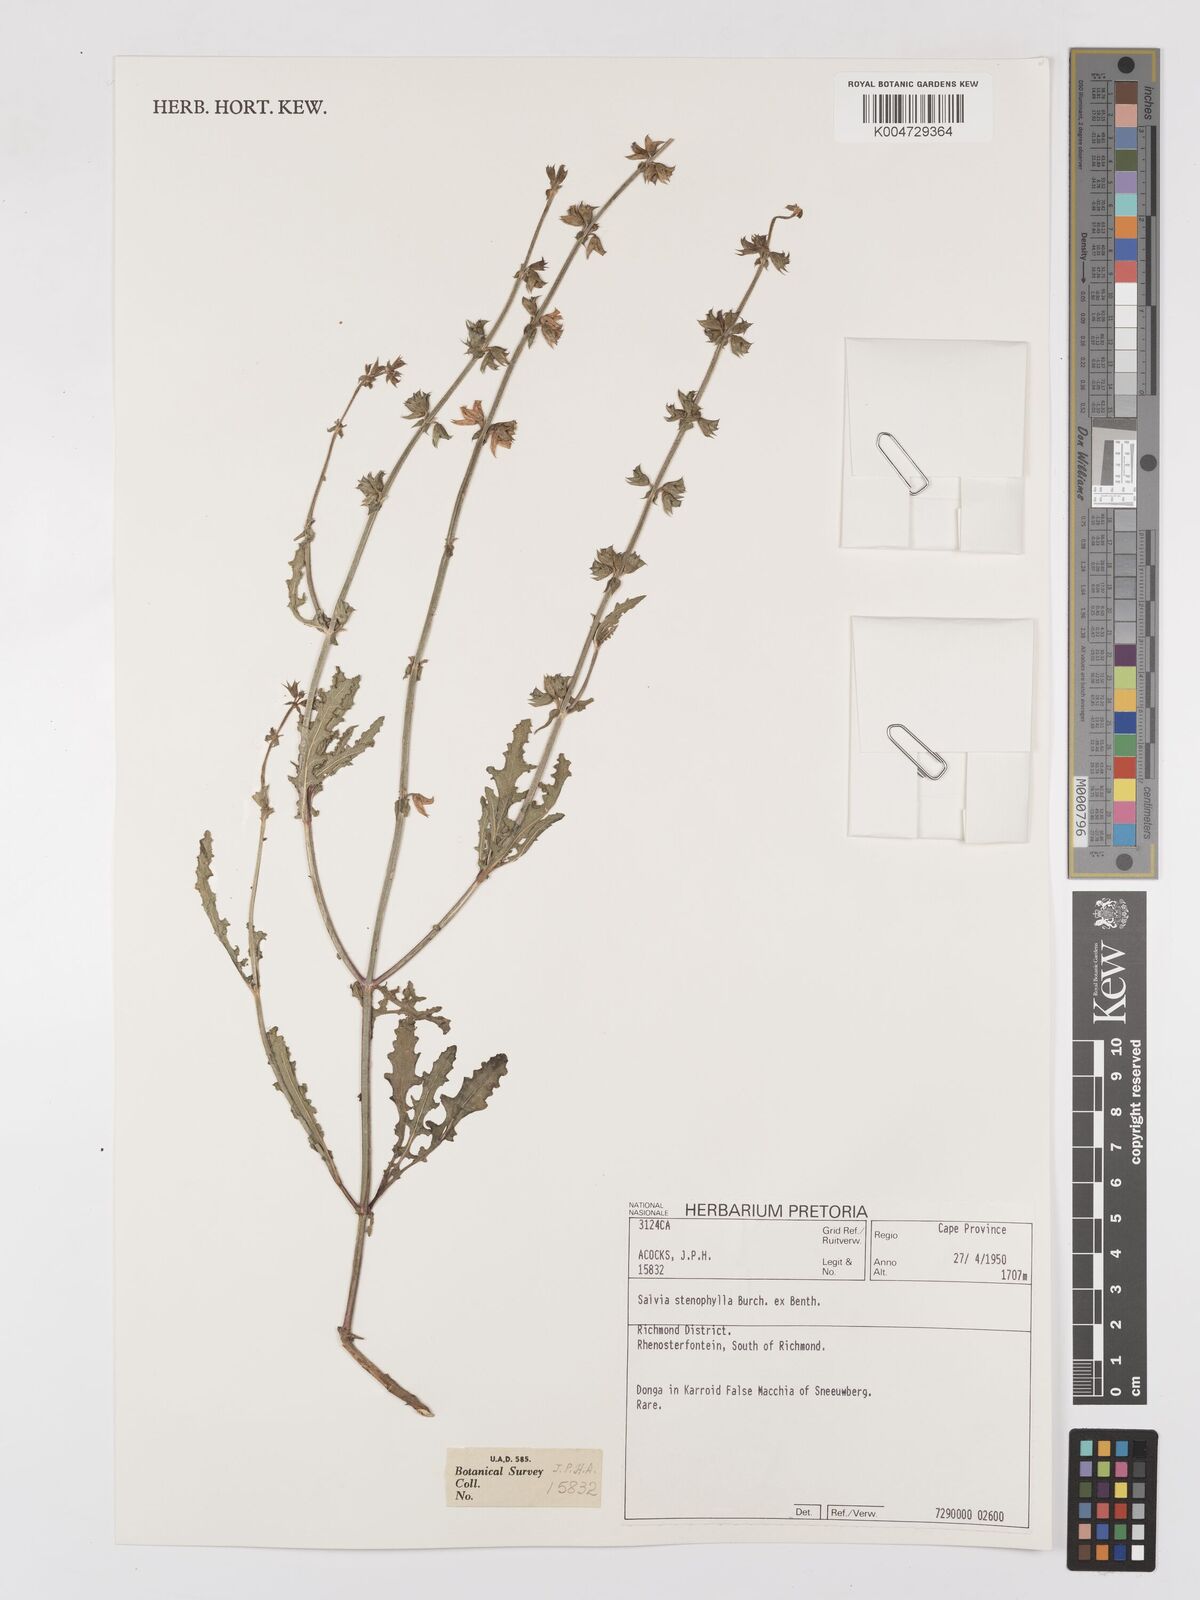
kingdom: Plantae
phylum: Tracheophyta
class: Magnoliopsida
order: Lamiales
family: Lamiaceae
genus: Salvia
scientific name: Salvia stenophylla
